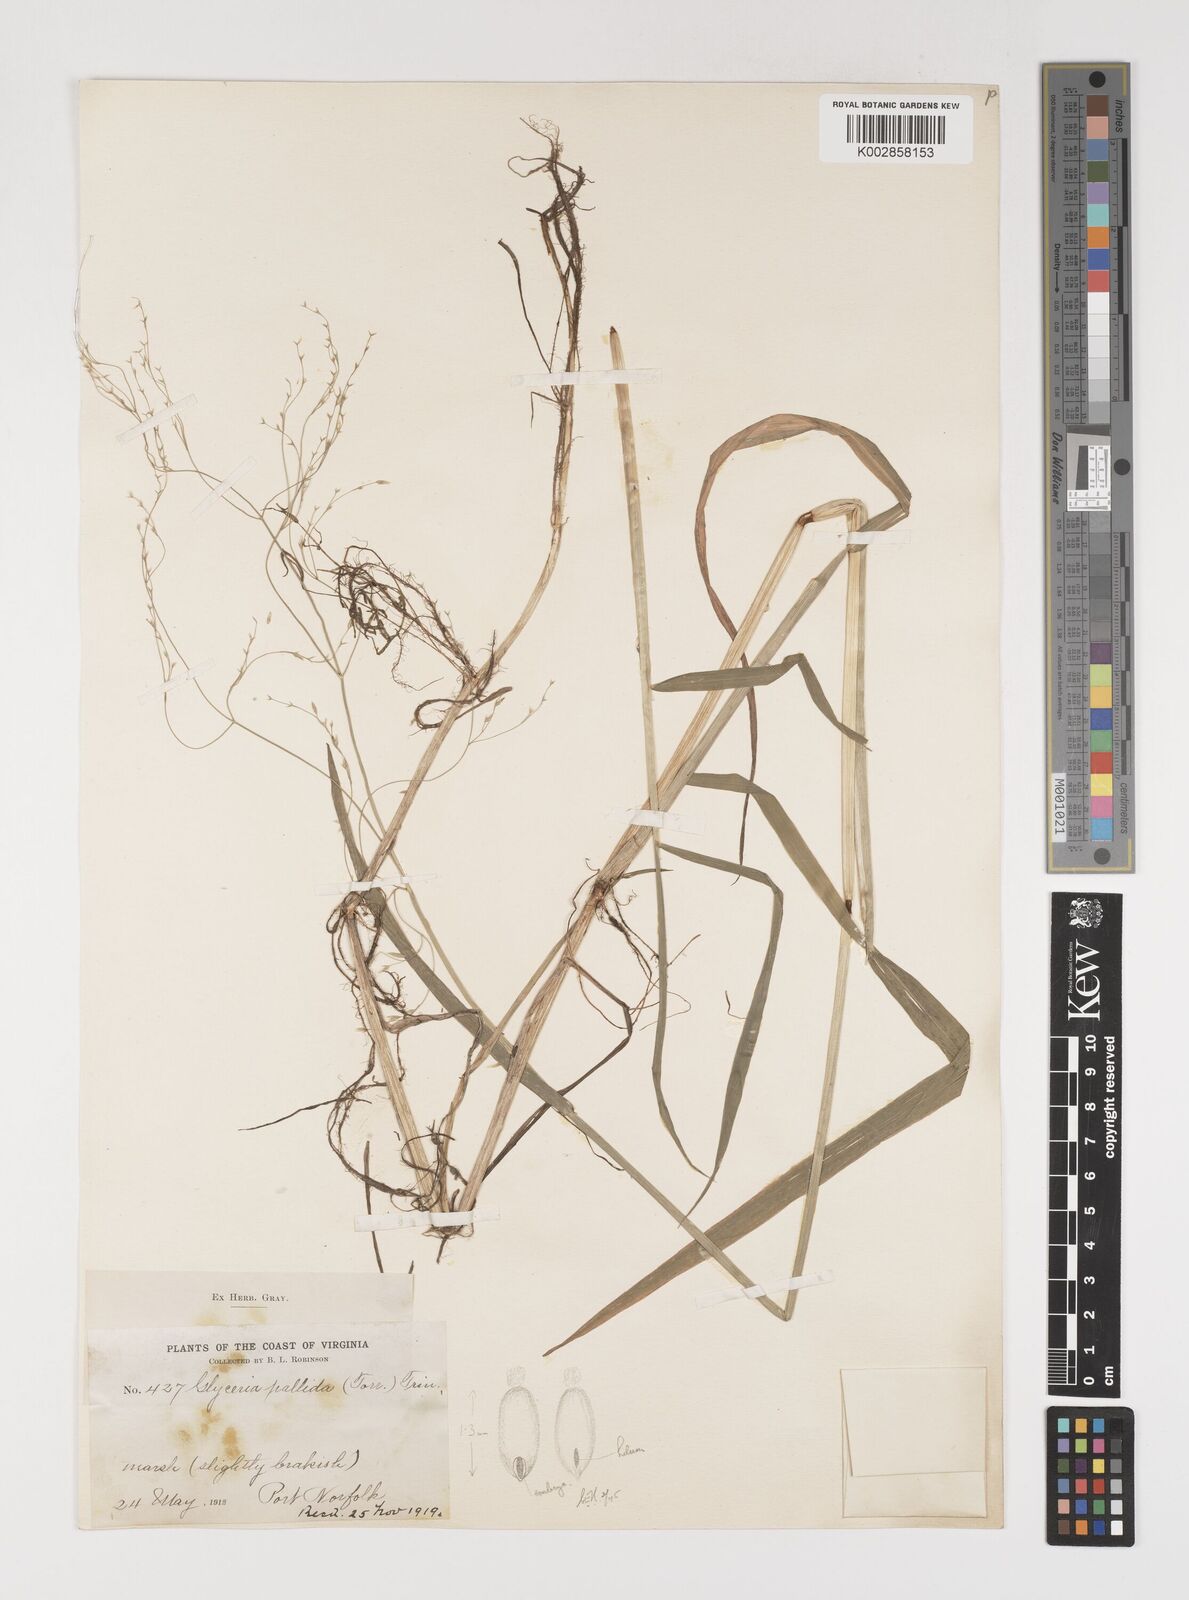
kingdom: Plantae
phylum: Tracheophyta
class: Liliopsida
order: Poales
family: Poaceae
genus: Torreyochloa
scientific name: Torreyochloa pallida
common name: Pale false mannagrass
